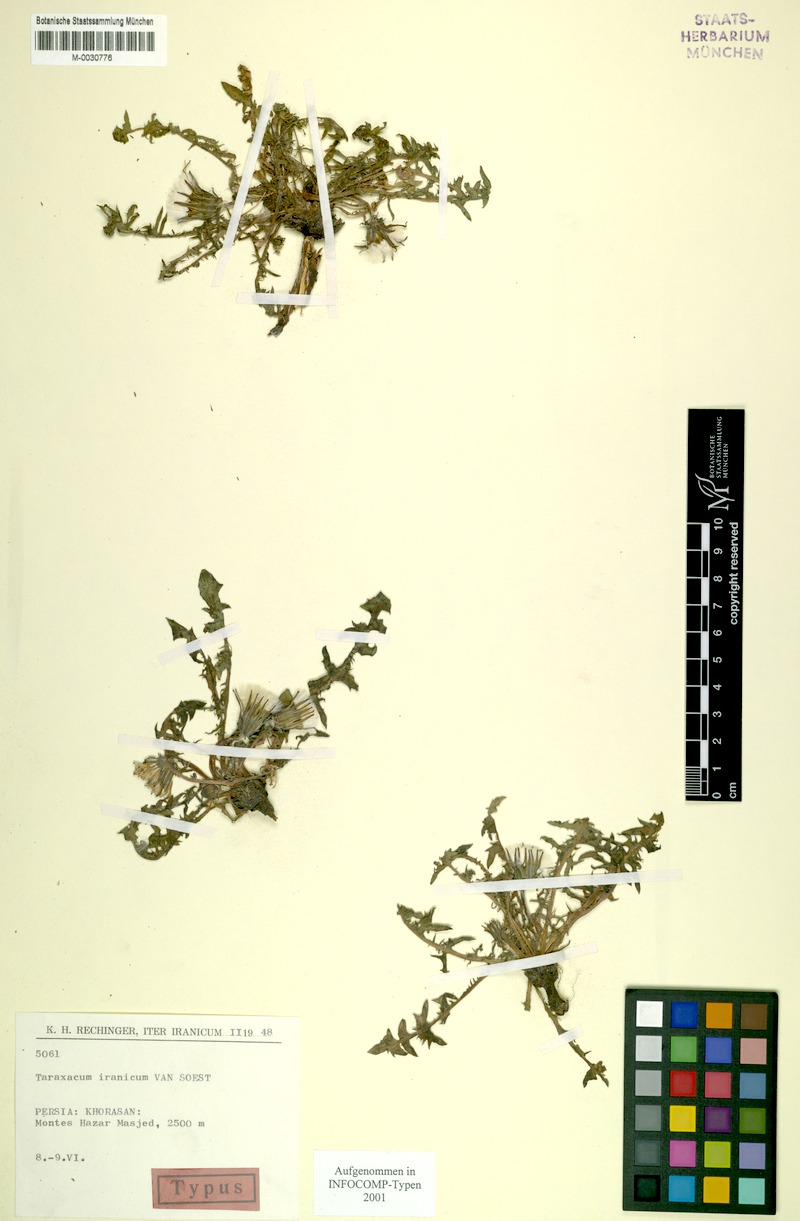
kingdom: Plantae
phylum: Tracheophyta
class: Magnoliopsida
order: Asterales
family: Asteraceae
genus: Taraxacum
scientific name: Taraxacum iranicum
